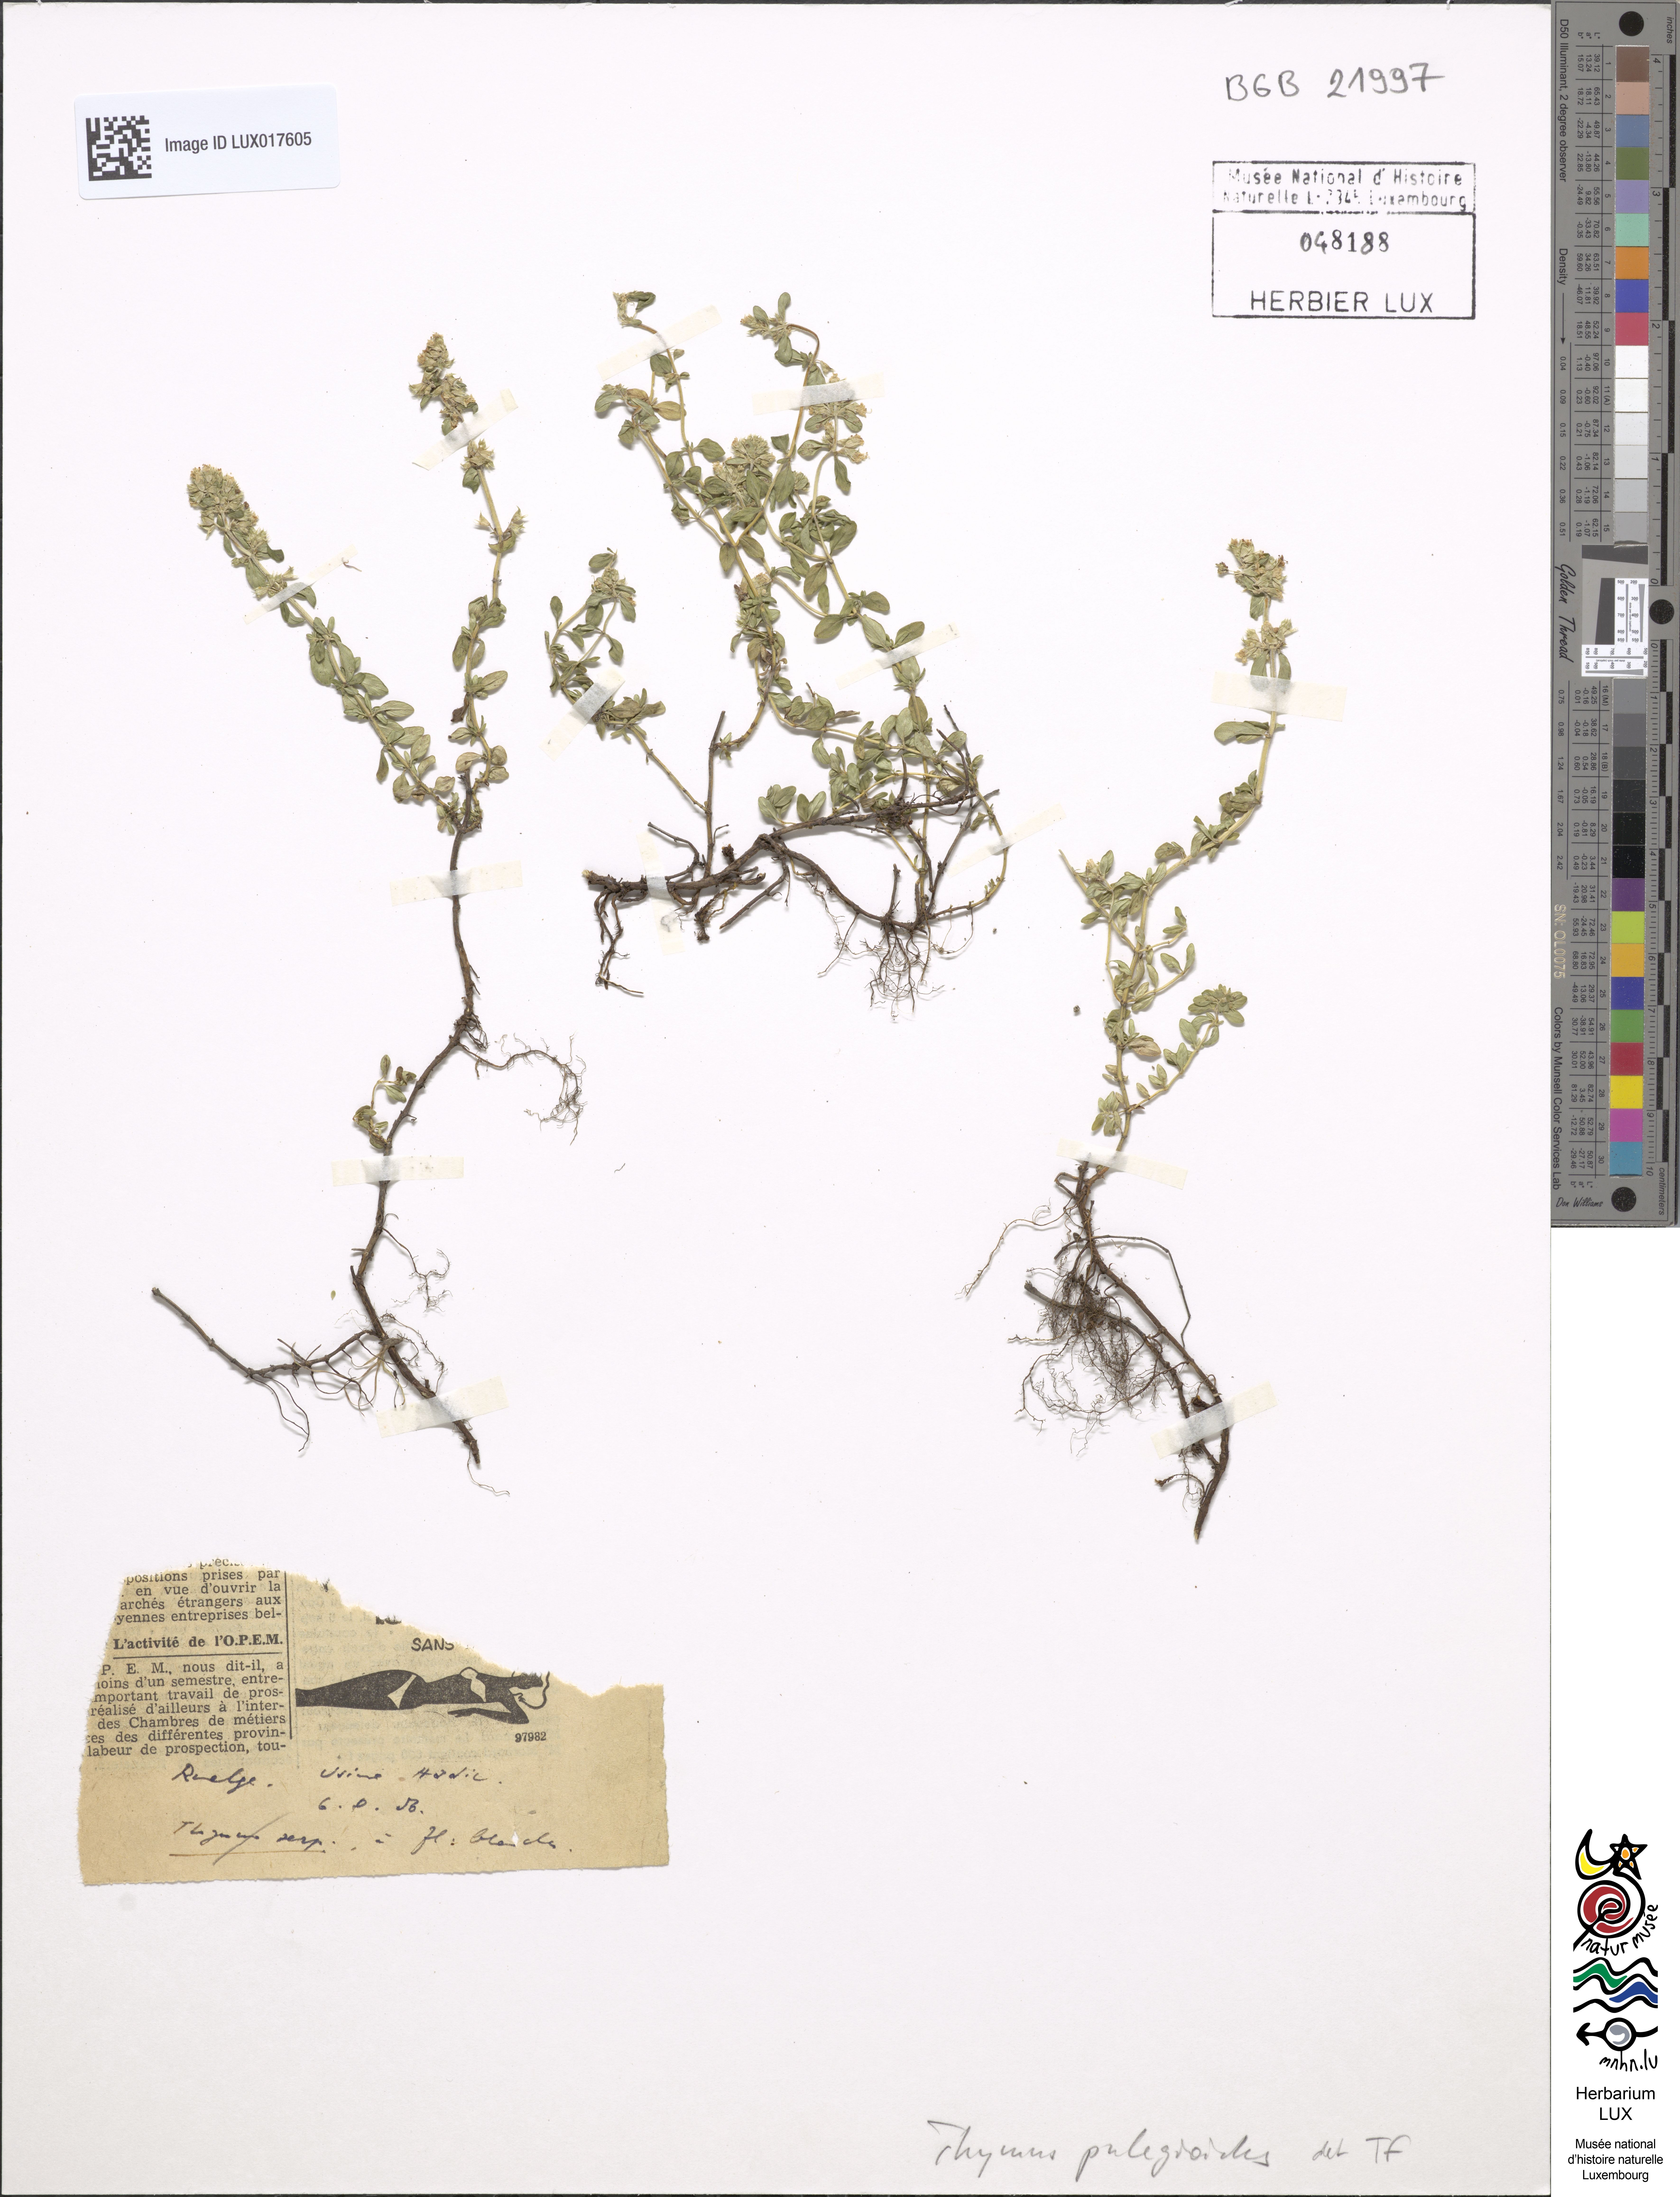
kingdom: Plantae
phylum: Tracheophyta
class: Magnoliopsida
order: Lamiales
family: Lamiaceae
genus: Thymus
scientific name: Thymus pulegioides
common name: Large thyme
